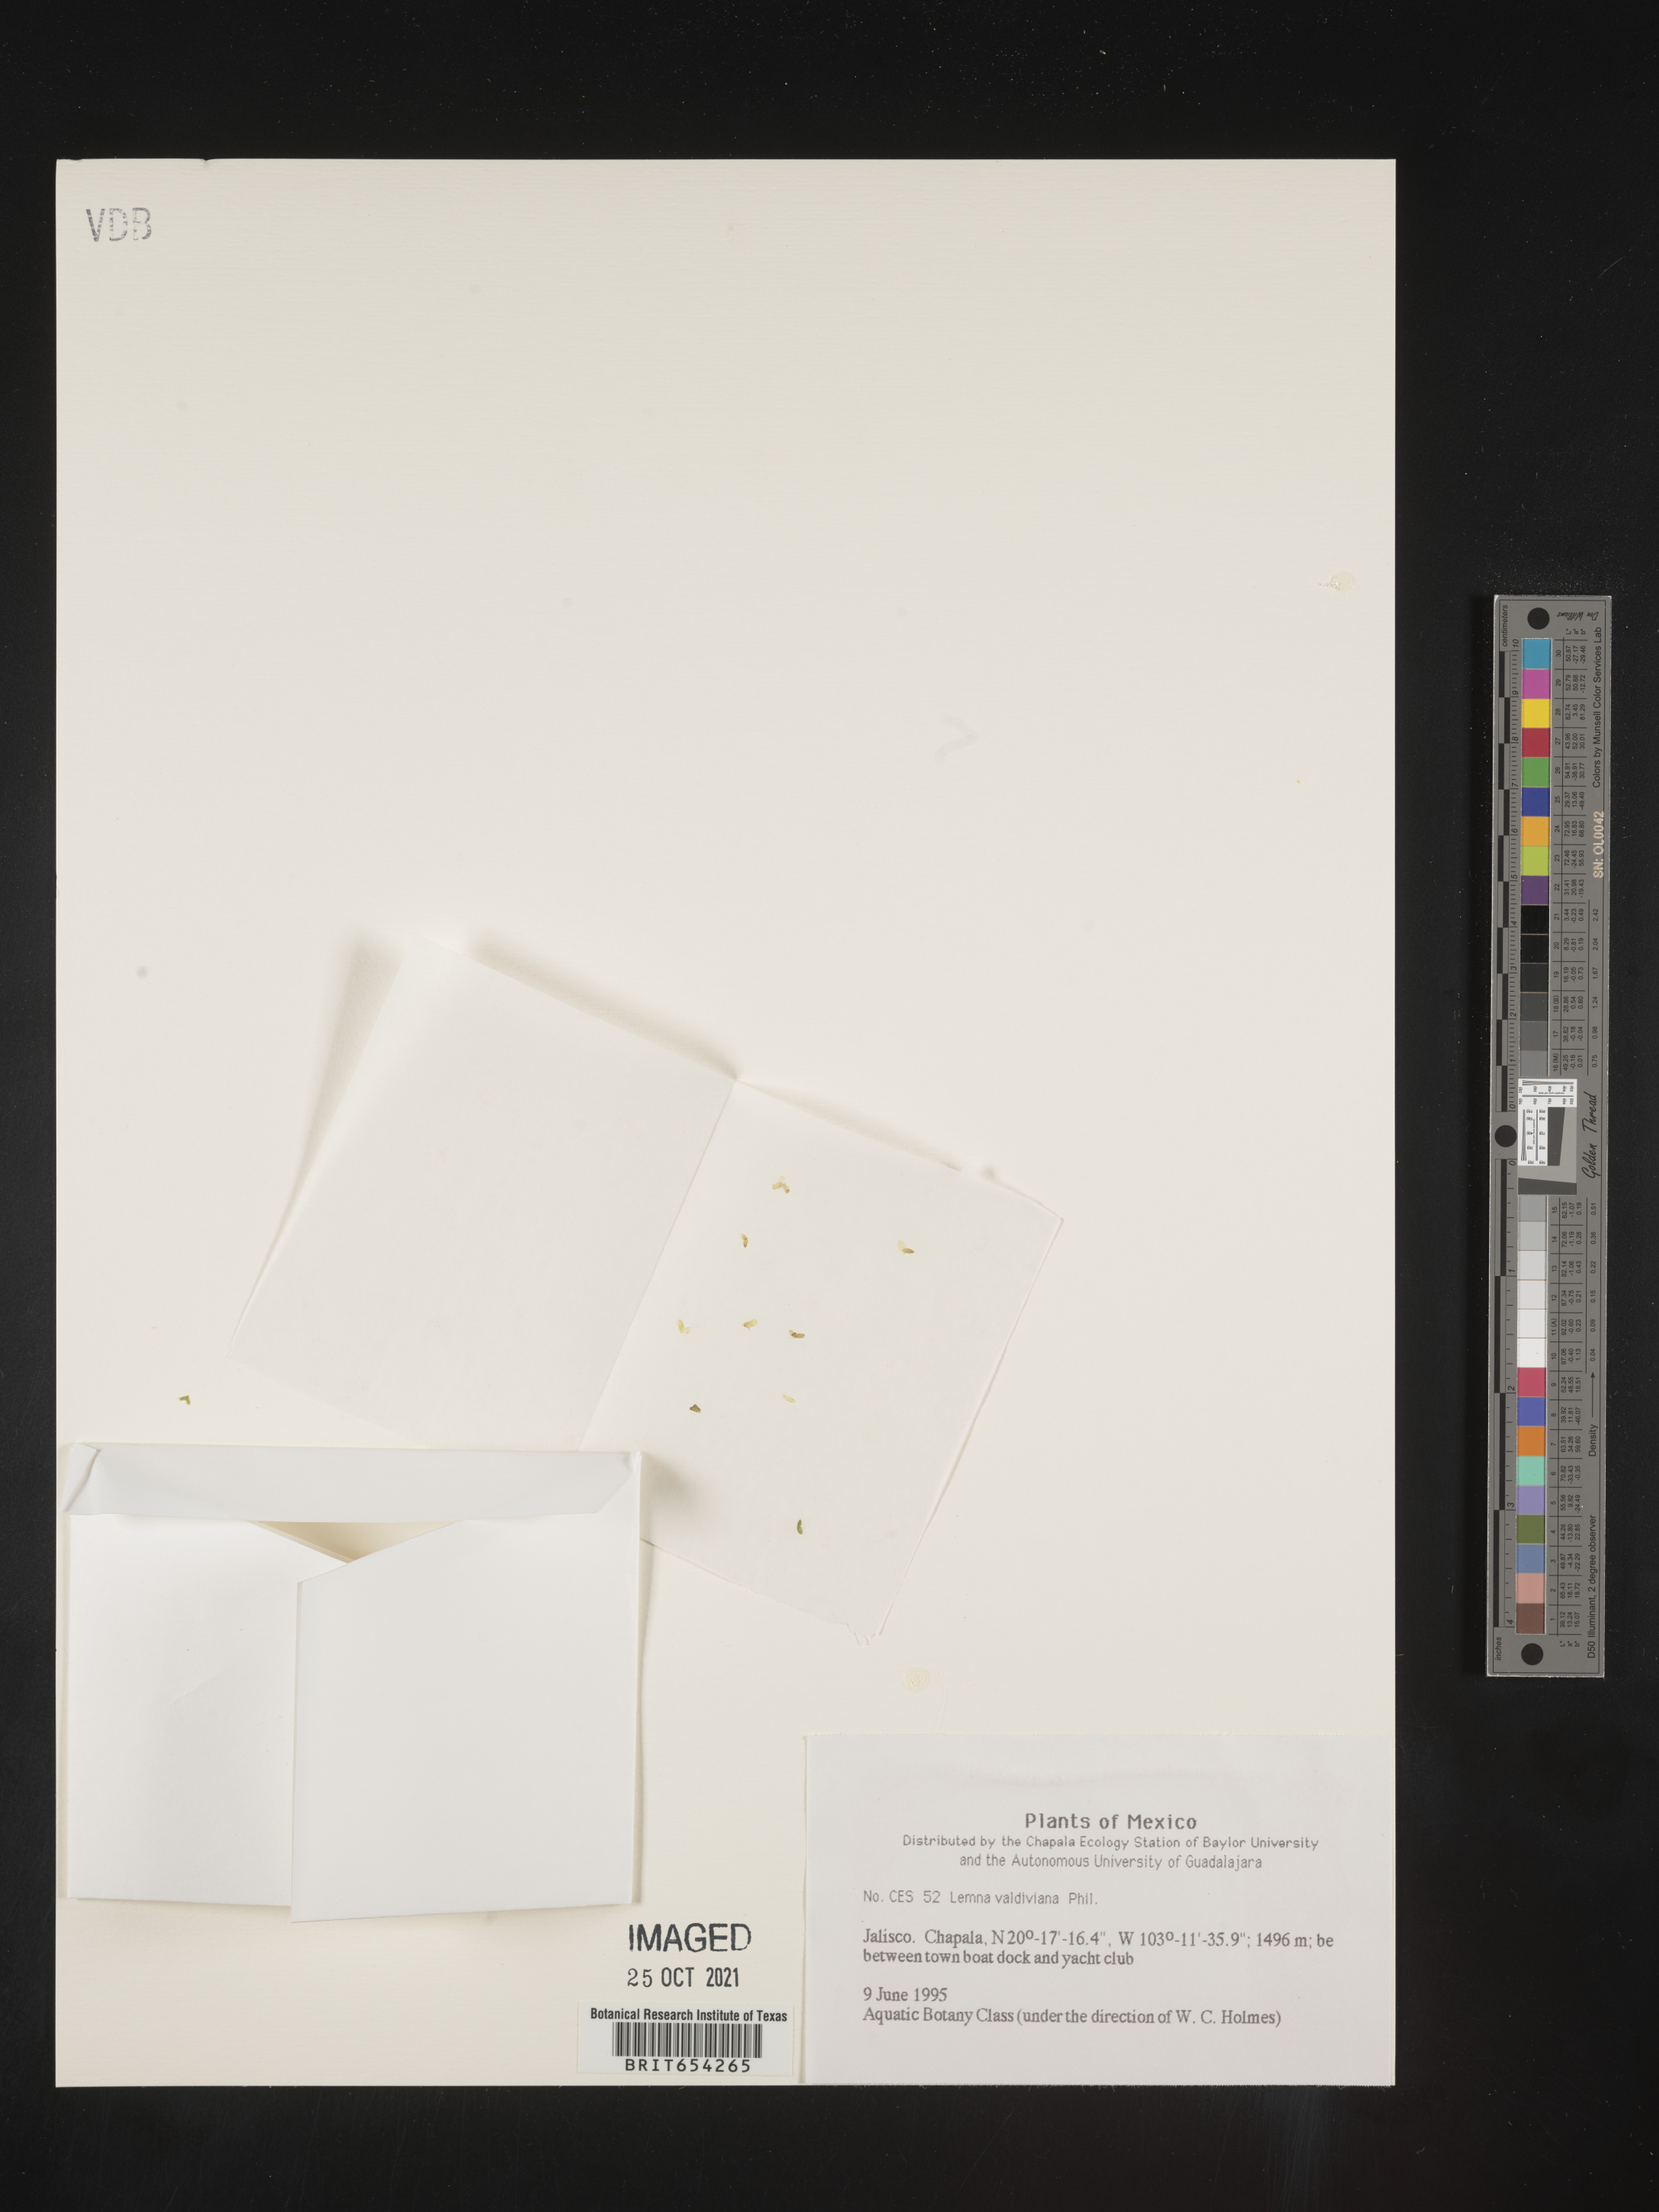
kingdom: Plantae
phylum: Tracheophyta
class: Liliopsida
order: Alismatales
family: Araceae
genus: Lemna
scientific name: Lemna
